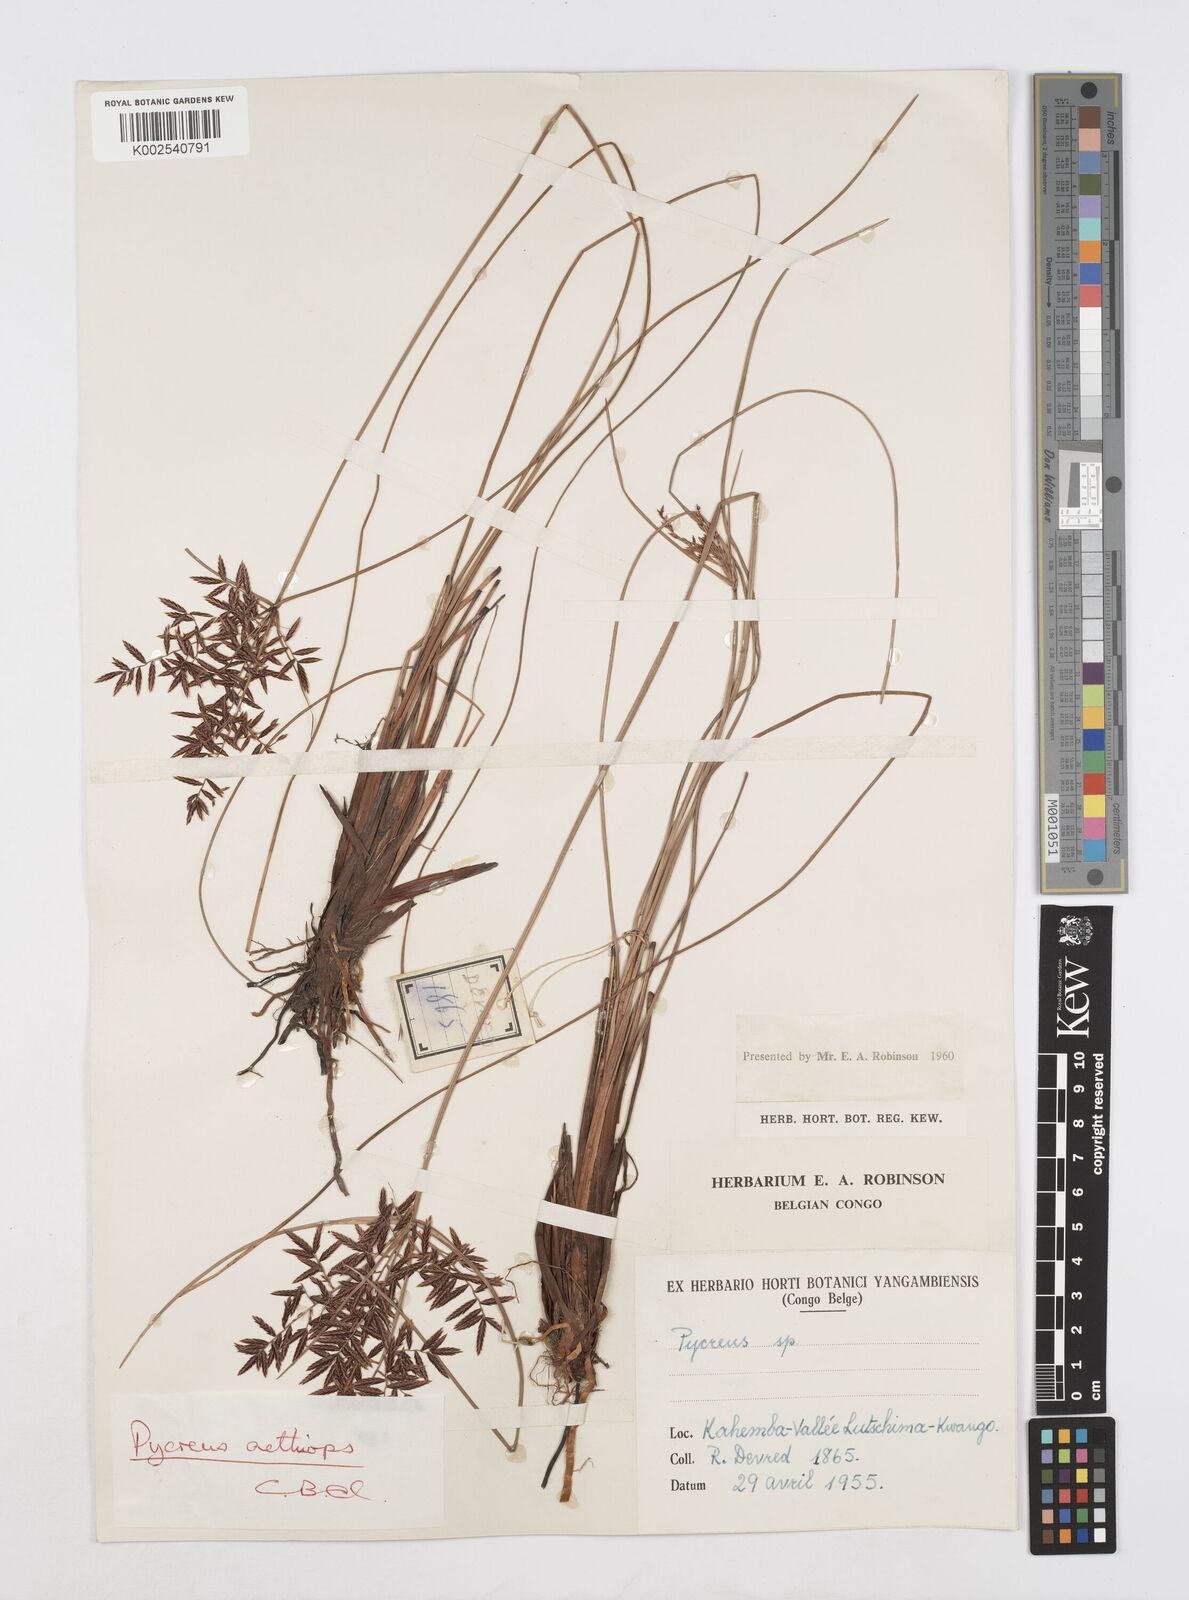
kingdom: Plantae
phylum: Tracheophyta
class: Liliopsida
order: Poales
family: Cyperaceae
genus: Cyperus
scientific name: Cyperus aethiops
